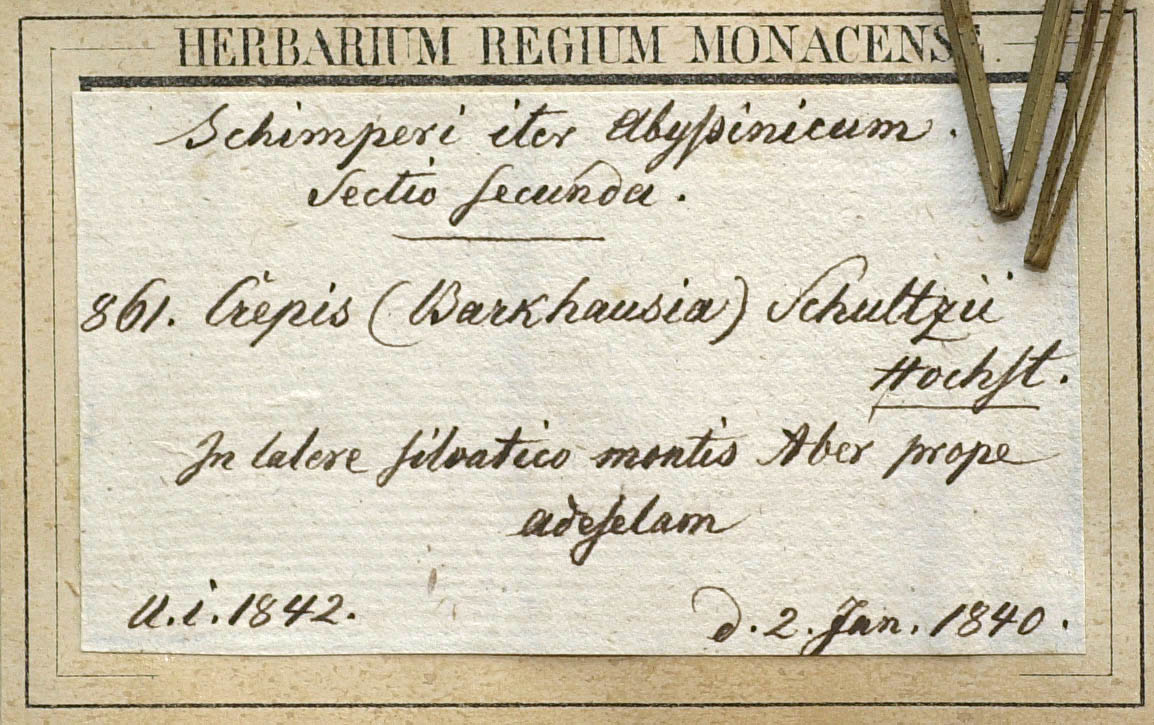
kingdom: Plantae
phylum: Tracheophyta
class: Magnoliopsida
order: Asterales
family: Asteraceae
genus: Crepis
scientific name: Crepis schultzii
